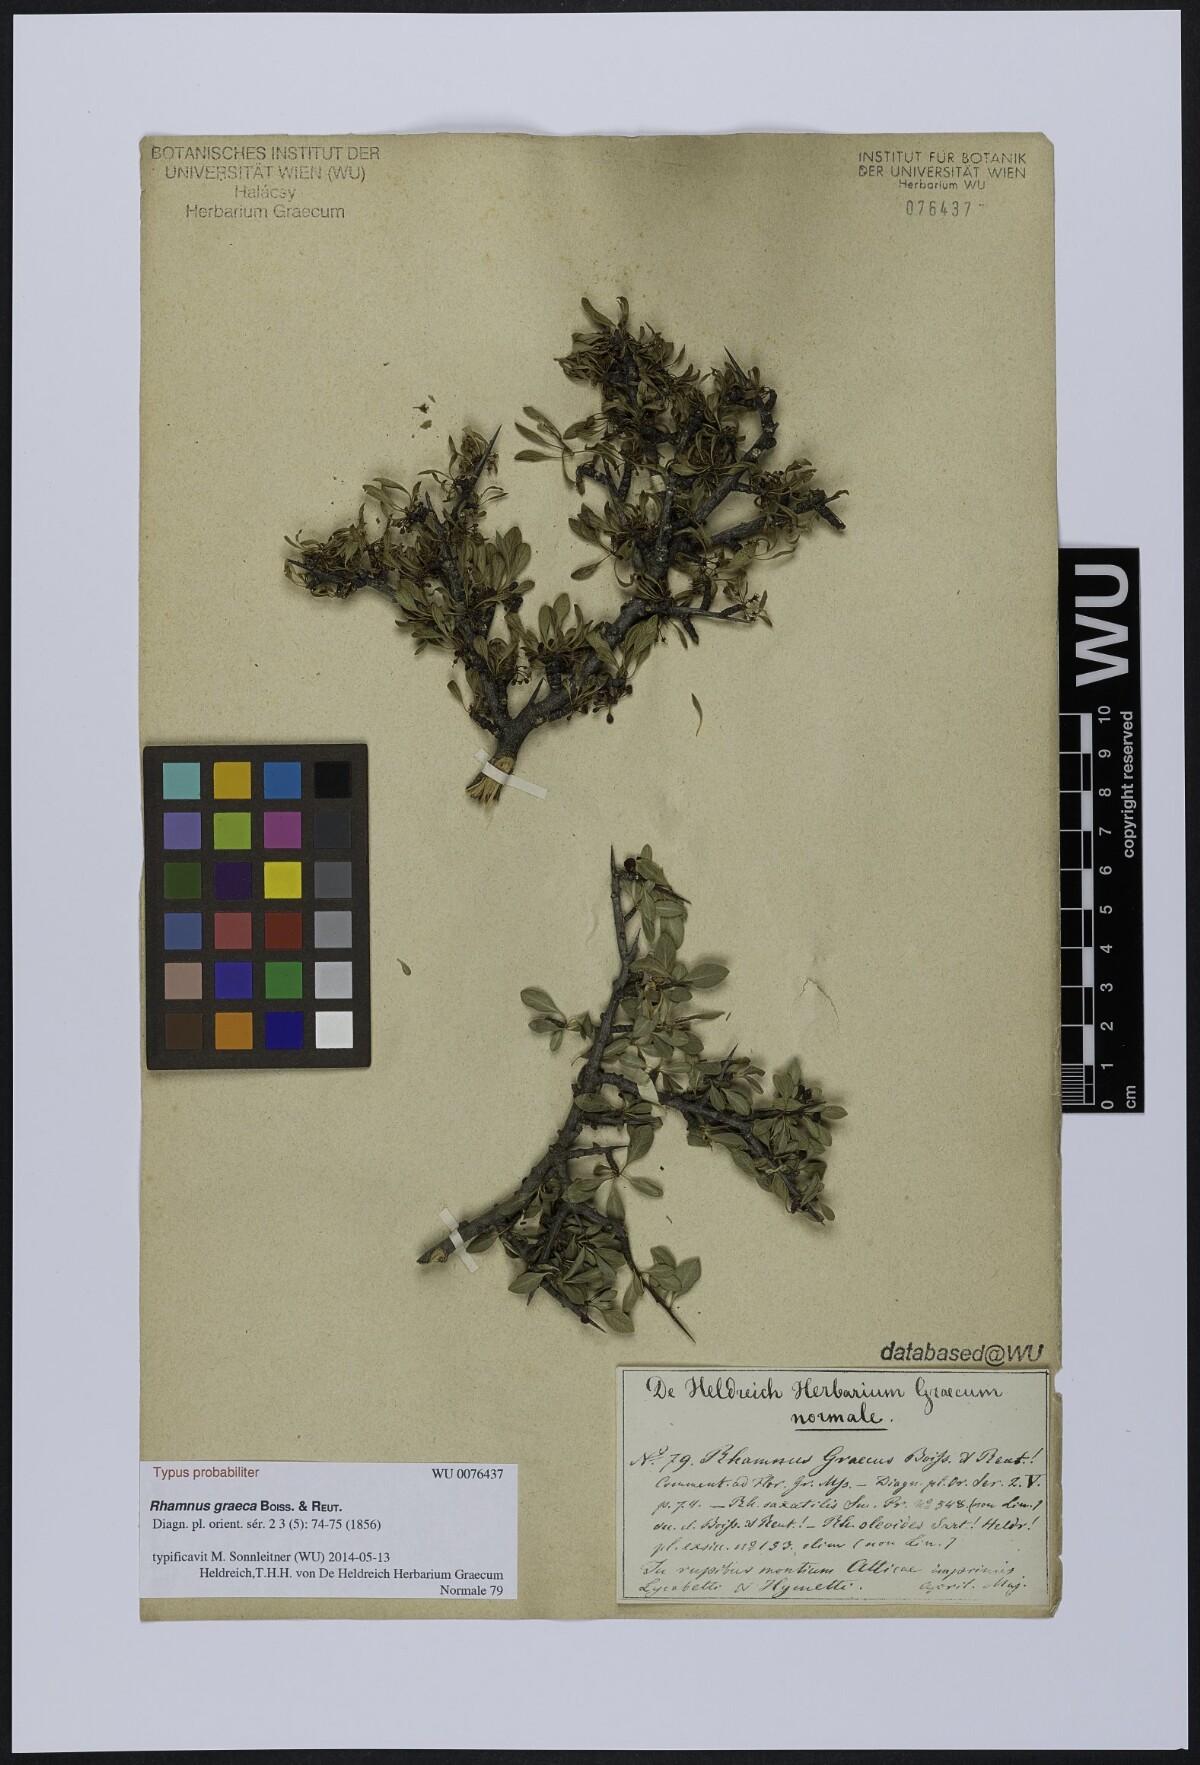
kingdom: Plantae
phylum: Tracheophyta
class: Magnoliopsida
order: Rosales
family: Rhamnaceae
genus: Rhamnus
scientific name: Rhamnus
